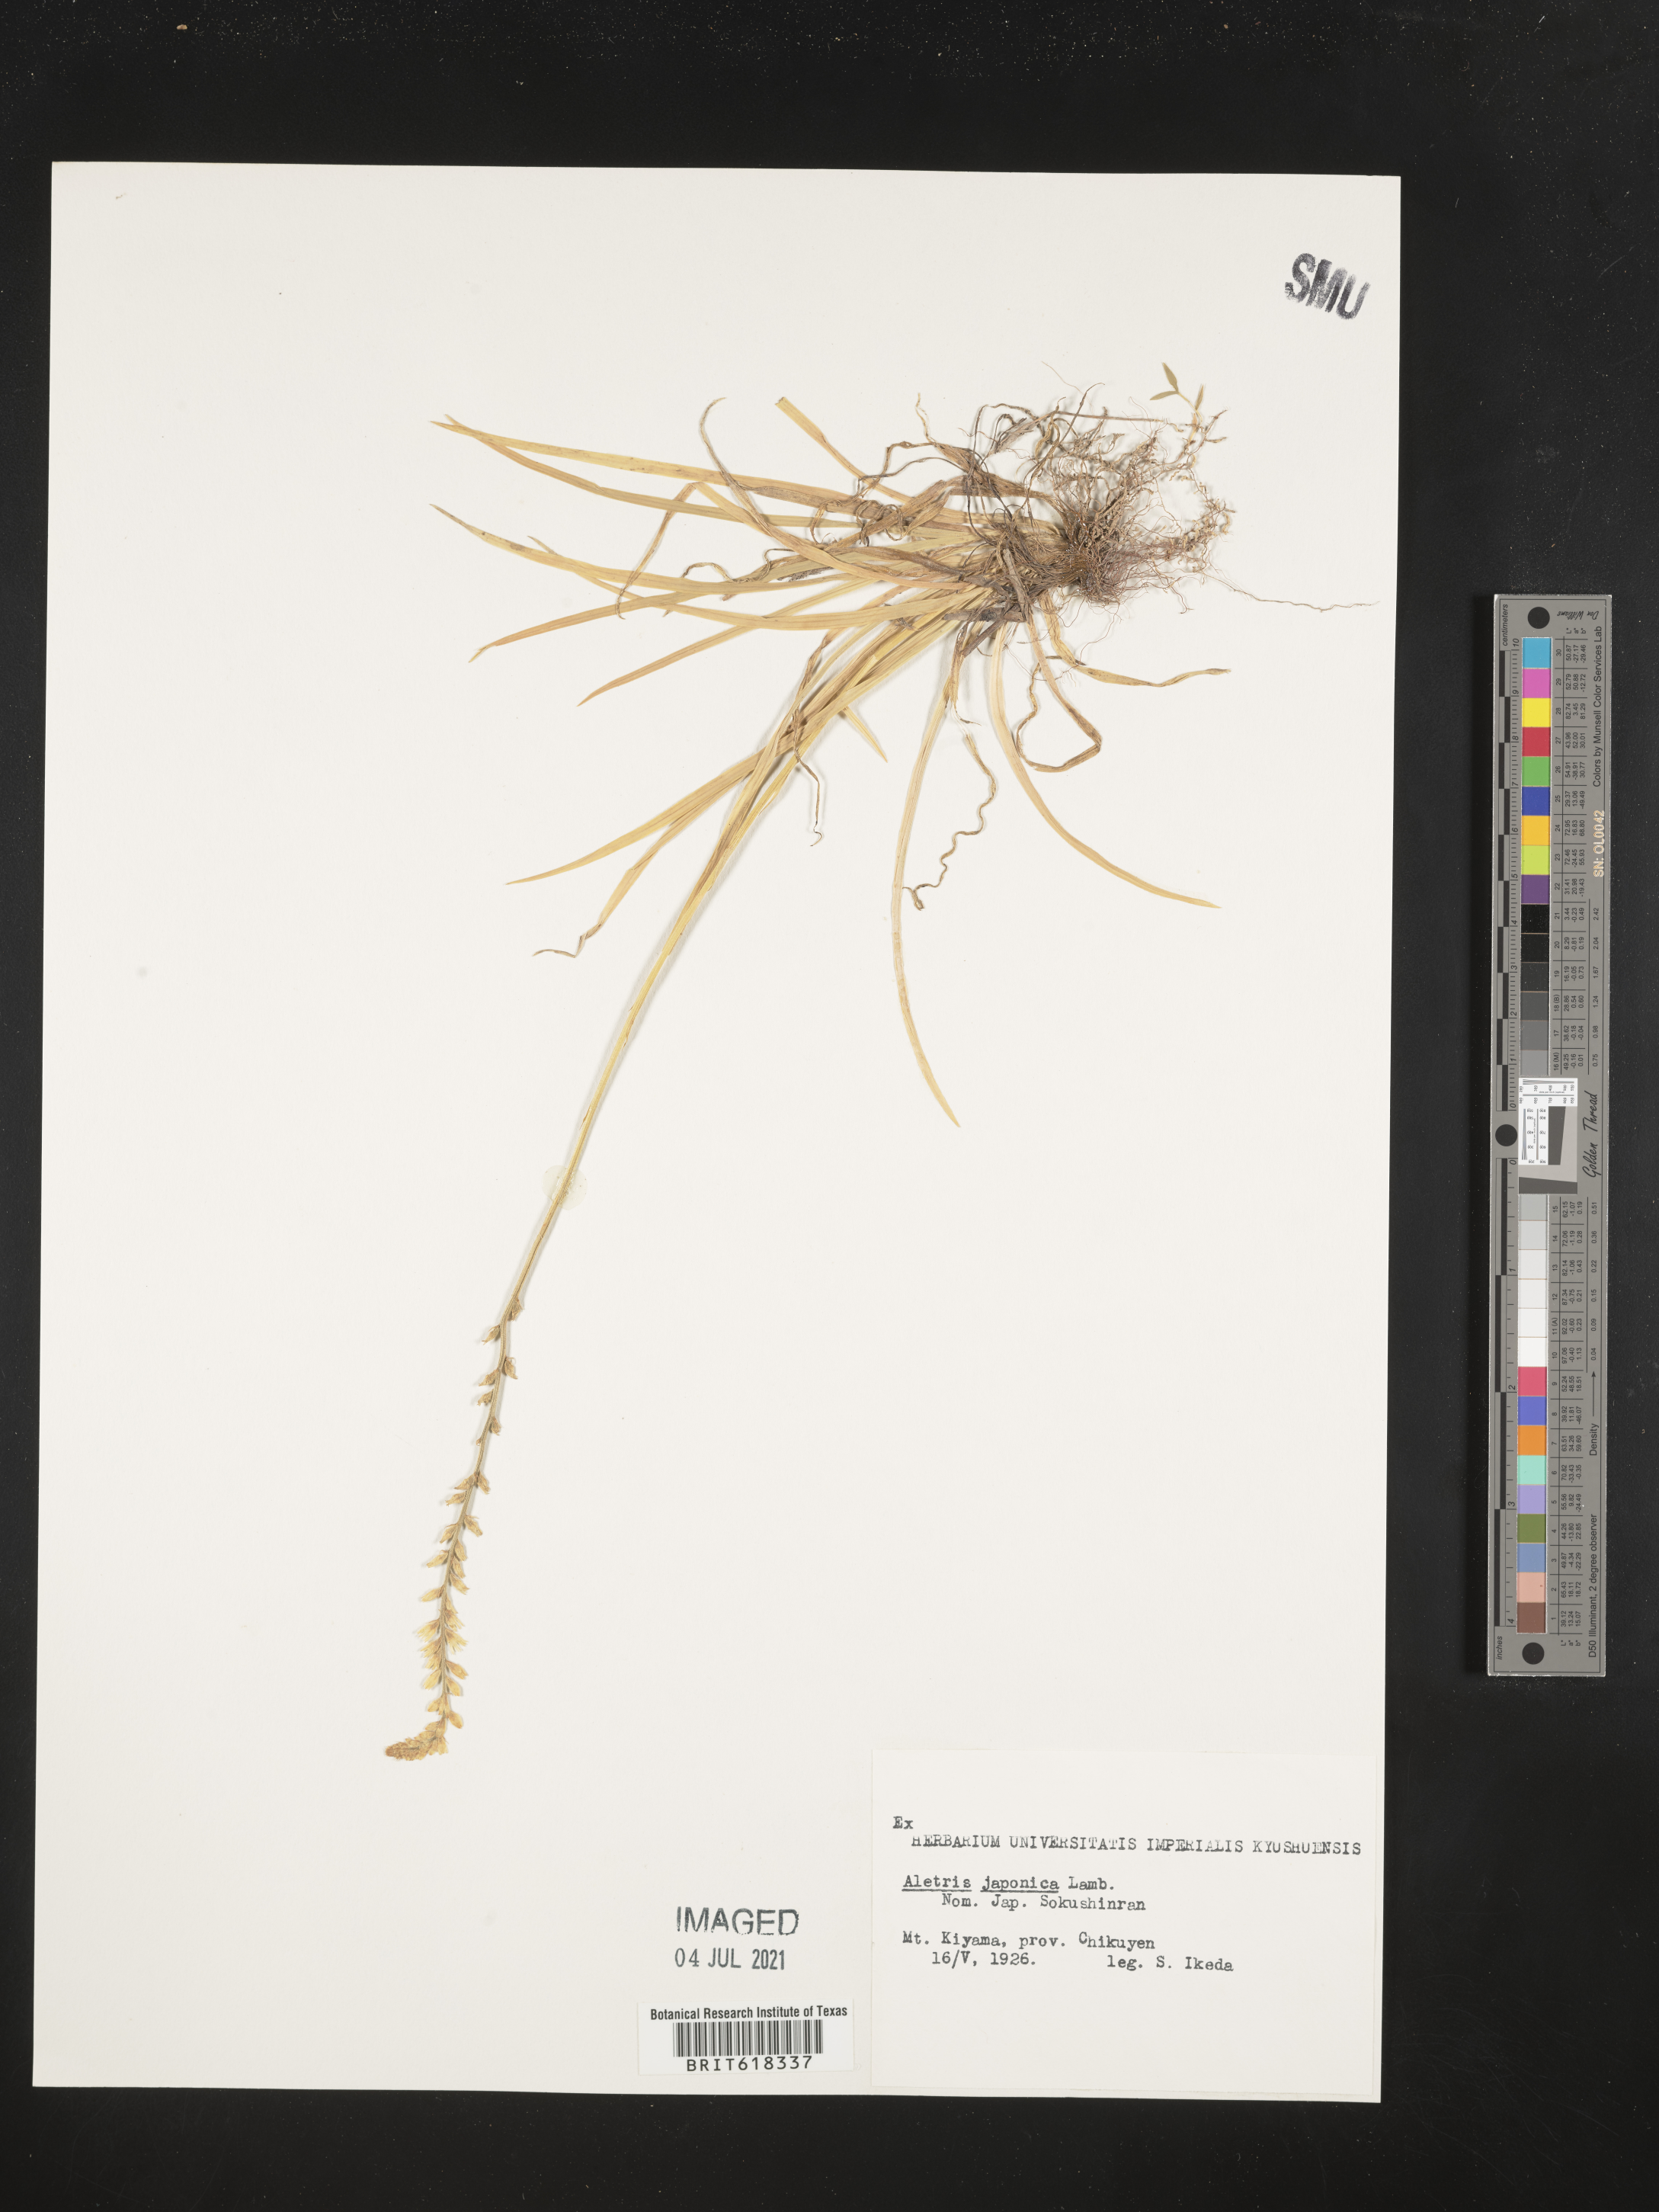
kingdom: Plantae
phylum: Tracheophyta
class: Liliopsida
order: Dioscoreales
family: Nartheciaceae
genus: Aletris
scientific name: Aletris spicata
